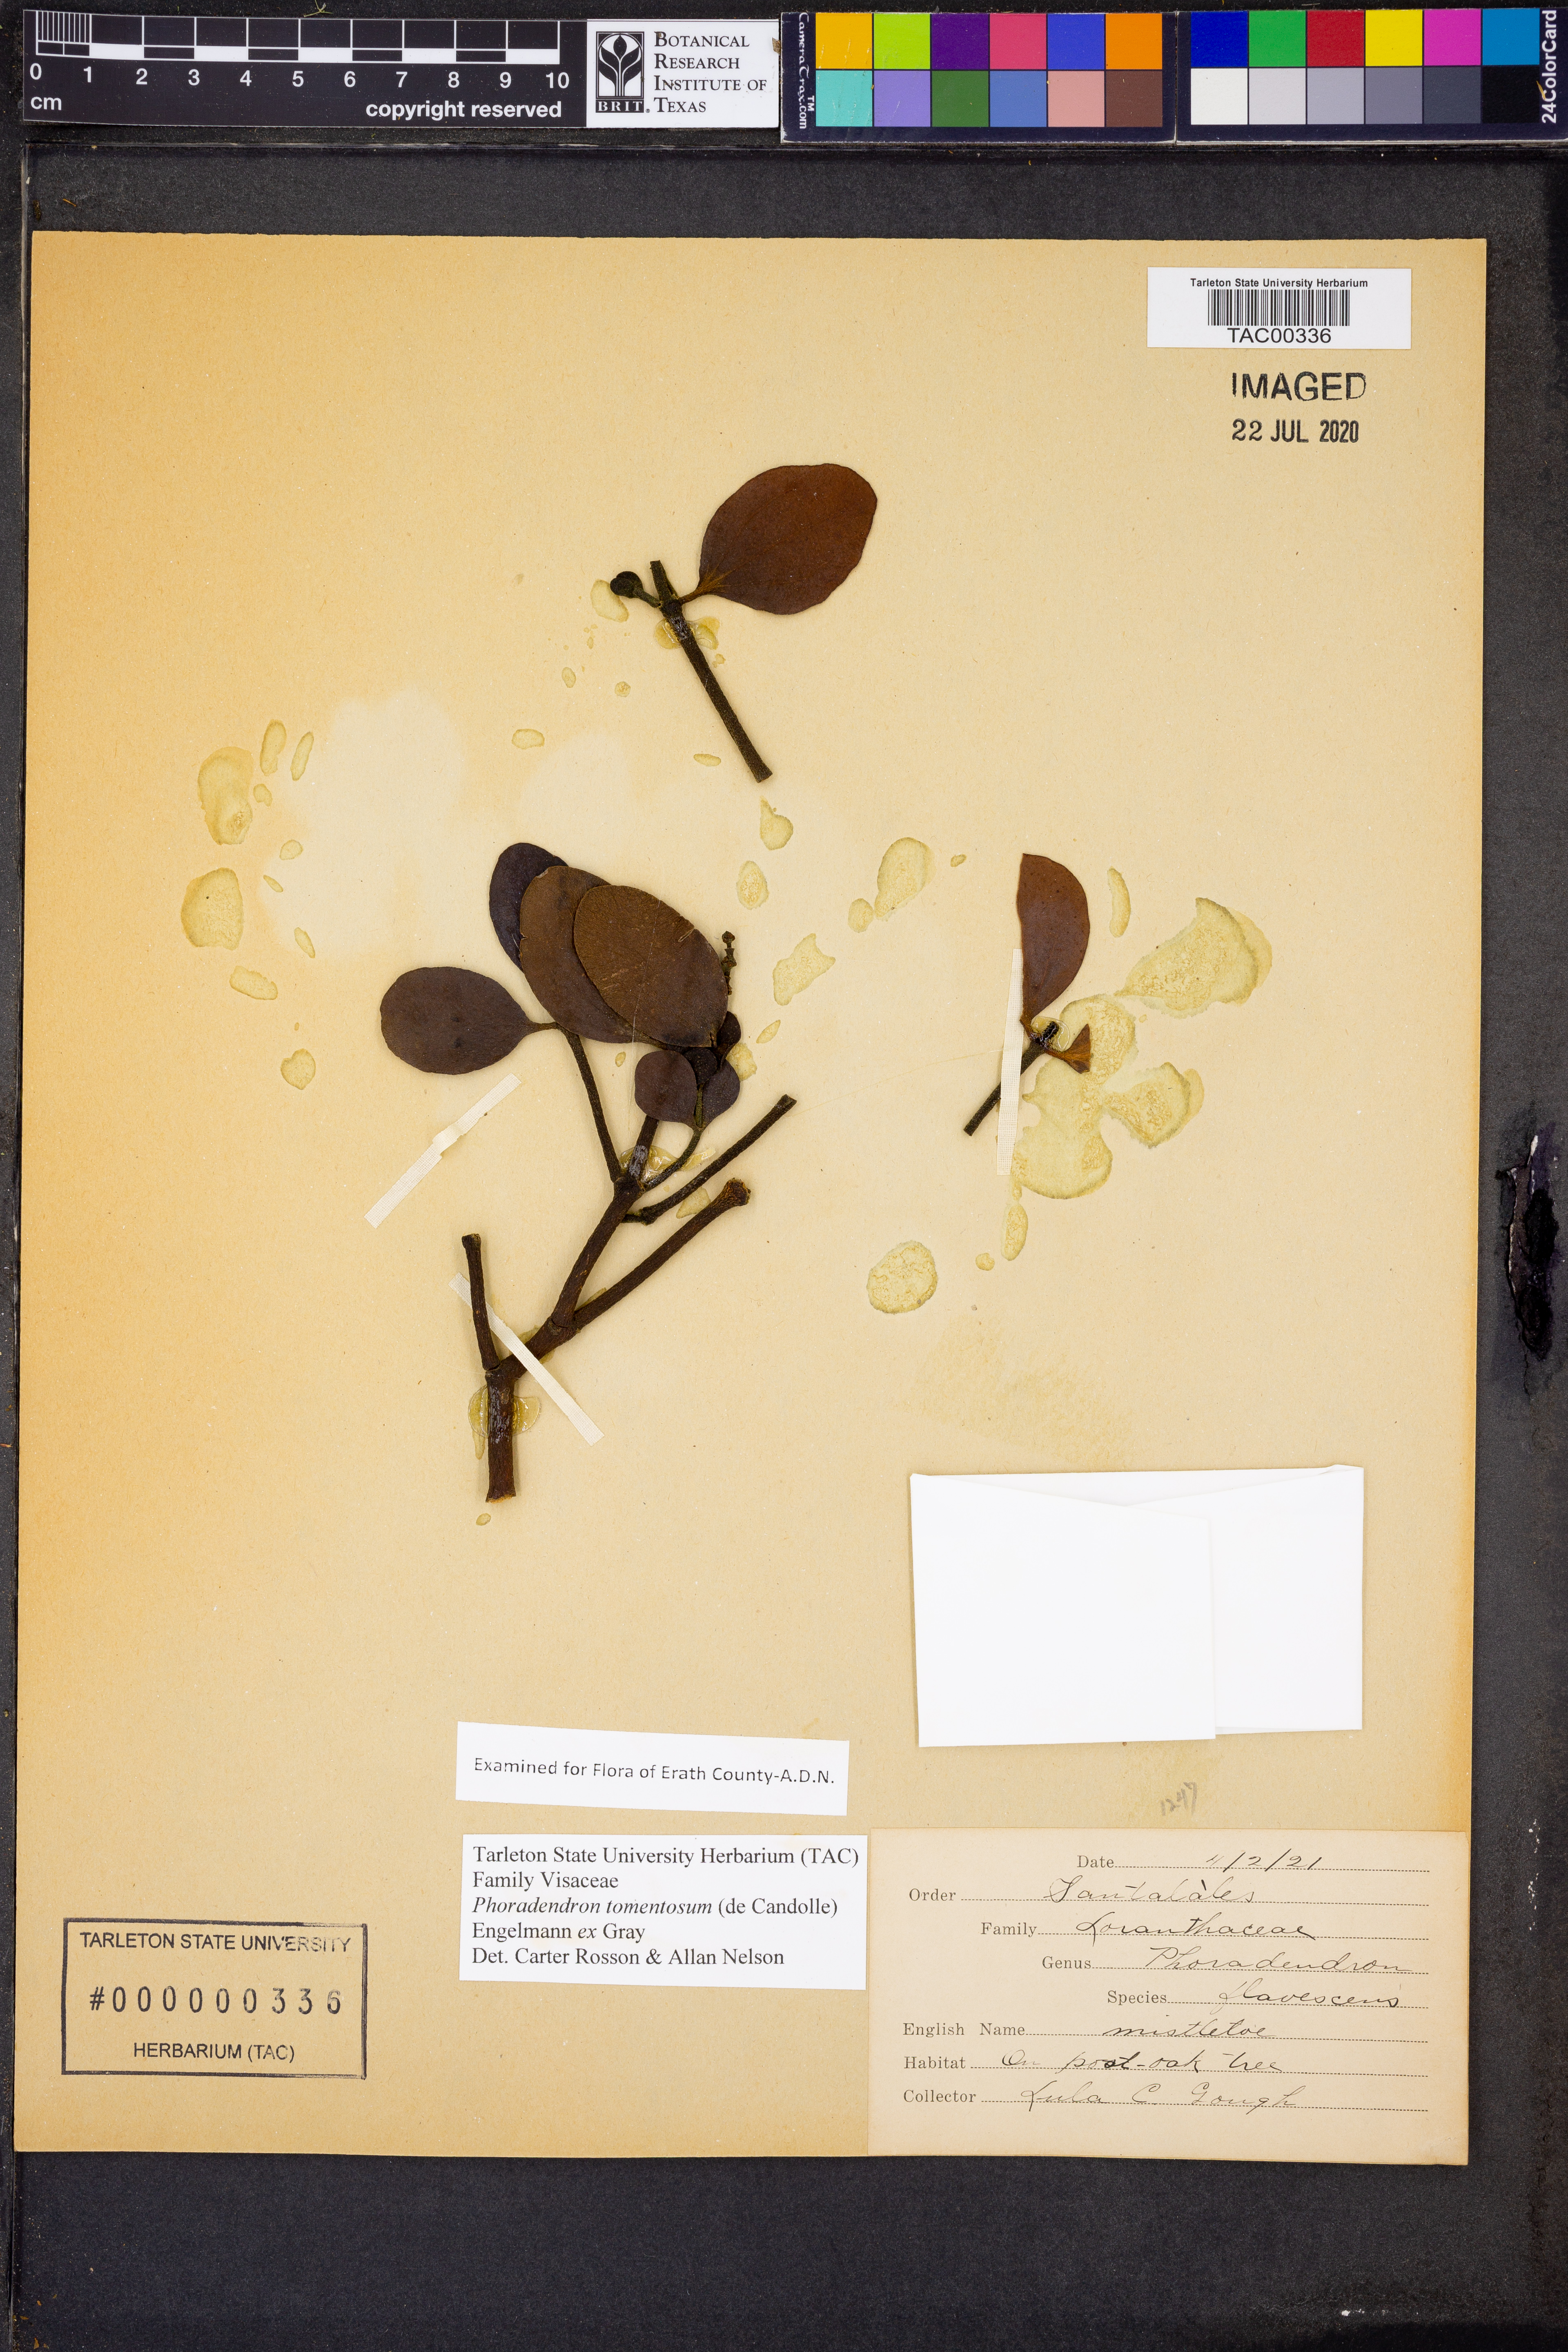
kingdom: Plantae
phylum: Tracheophyta
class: Magnoliopsida
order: Santalales
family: Viscaceae
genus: Phoradendron
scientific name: Phoradendron leucarpum
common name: Pacific mistletoe
